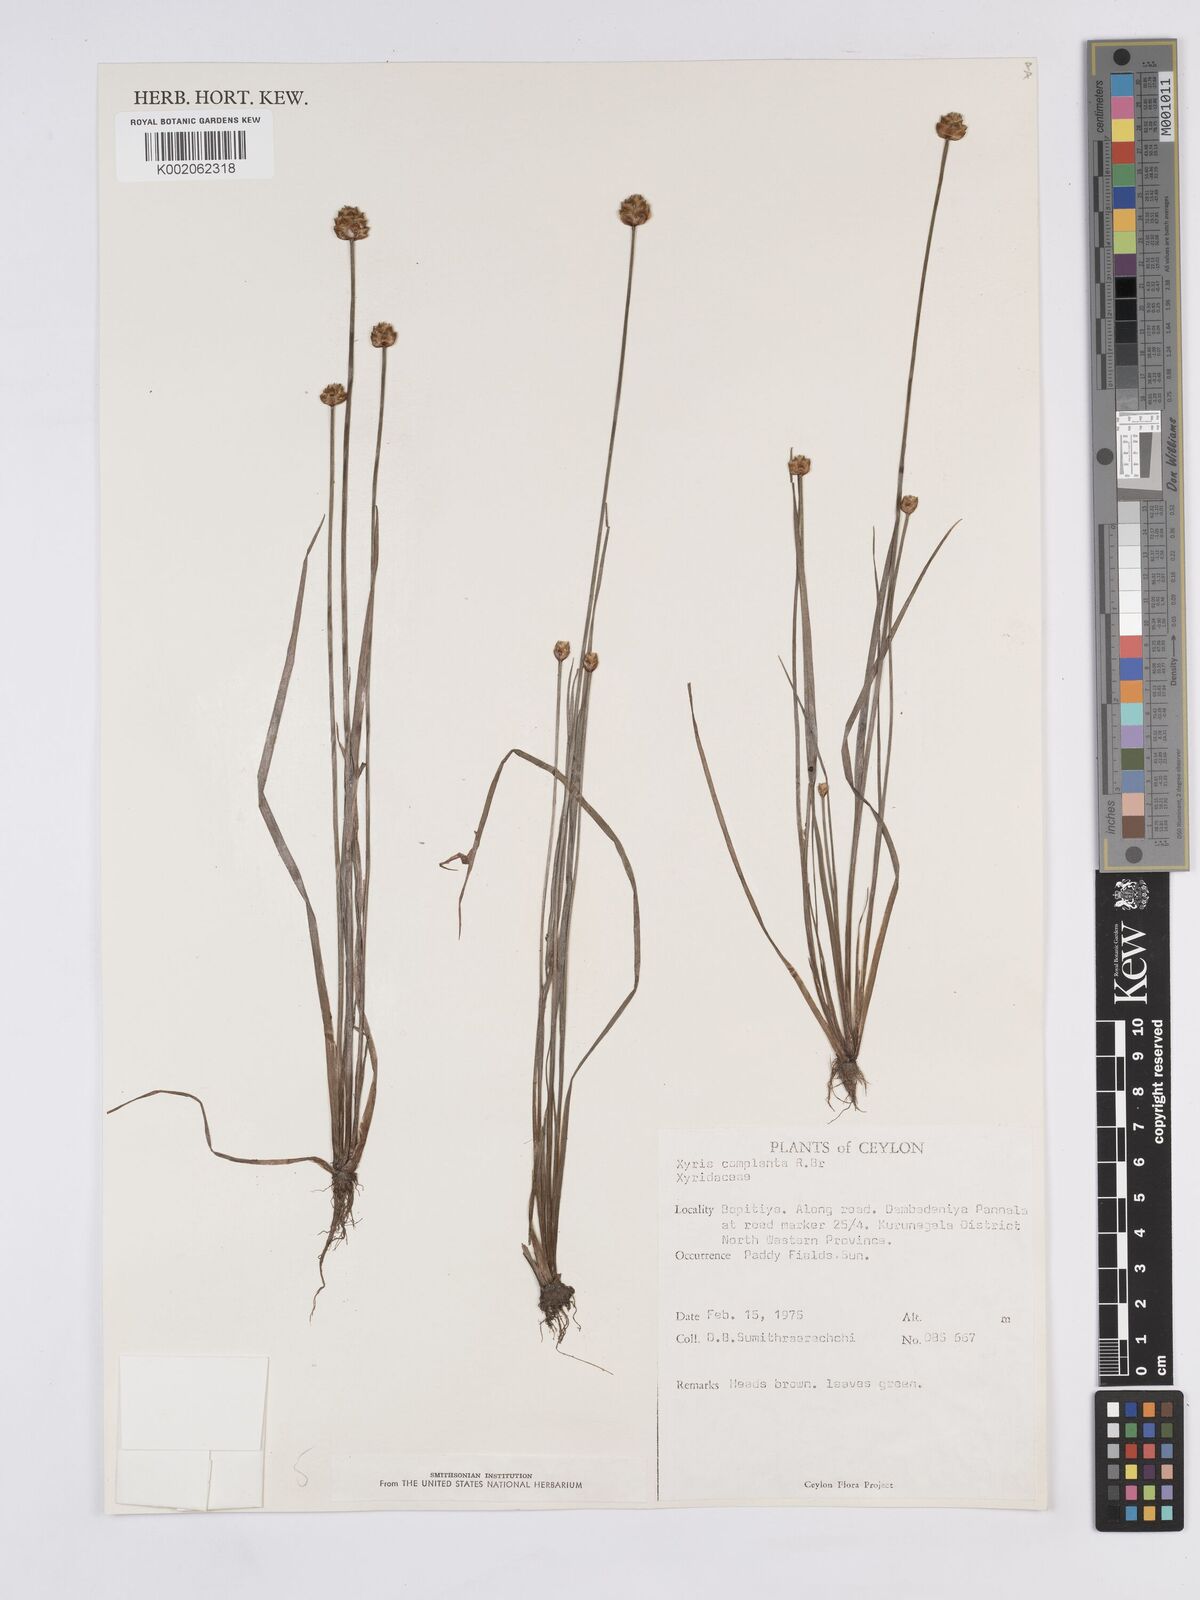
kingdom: Plantae
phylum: Tracheophyta
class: Liliopsida
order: Poales
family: Xyridaceae
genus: Xyris
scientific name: Xyris complanata
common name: Hawai'i yelloweyed grass
